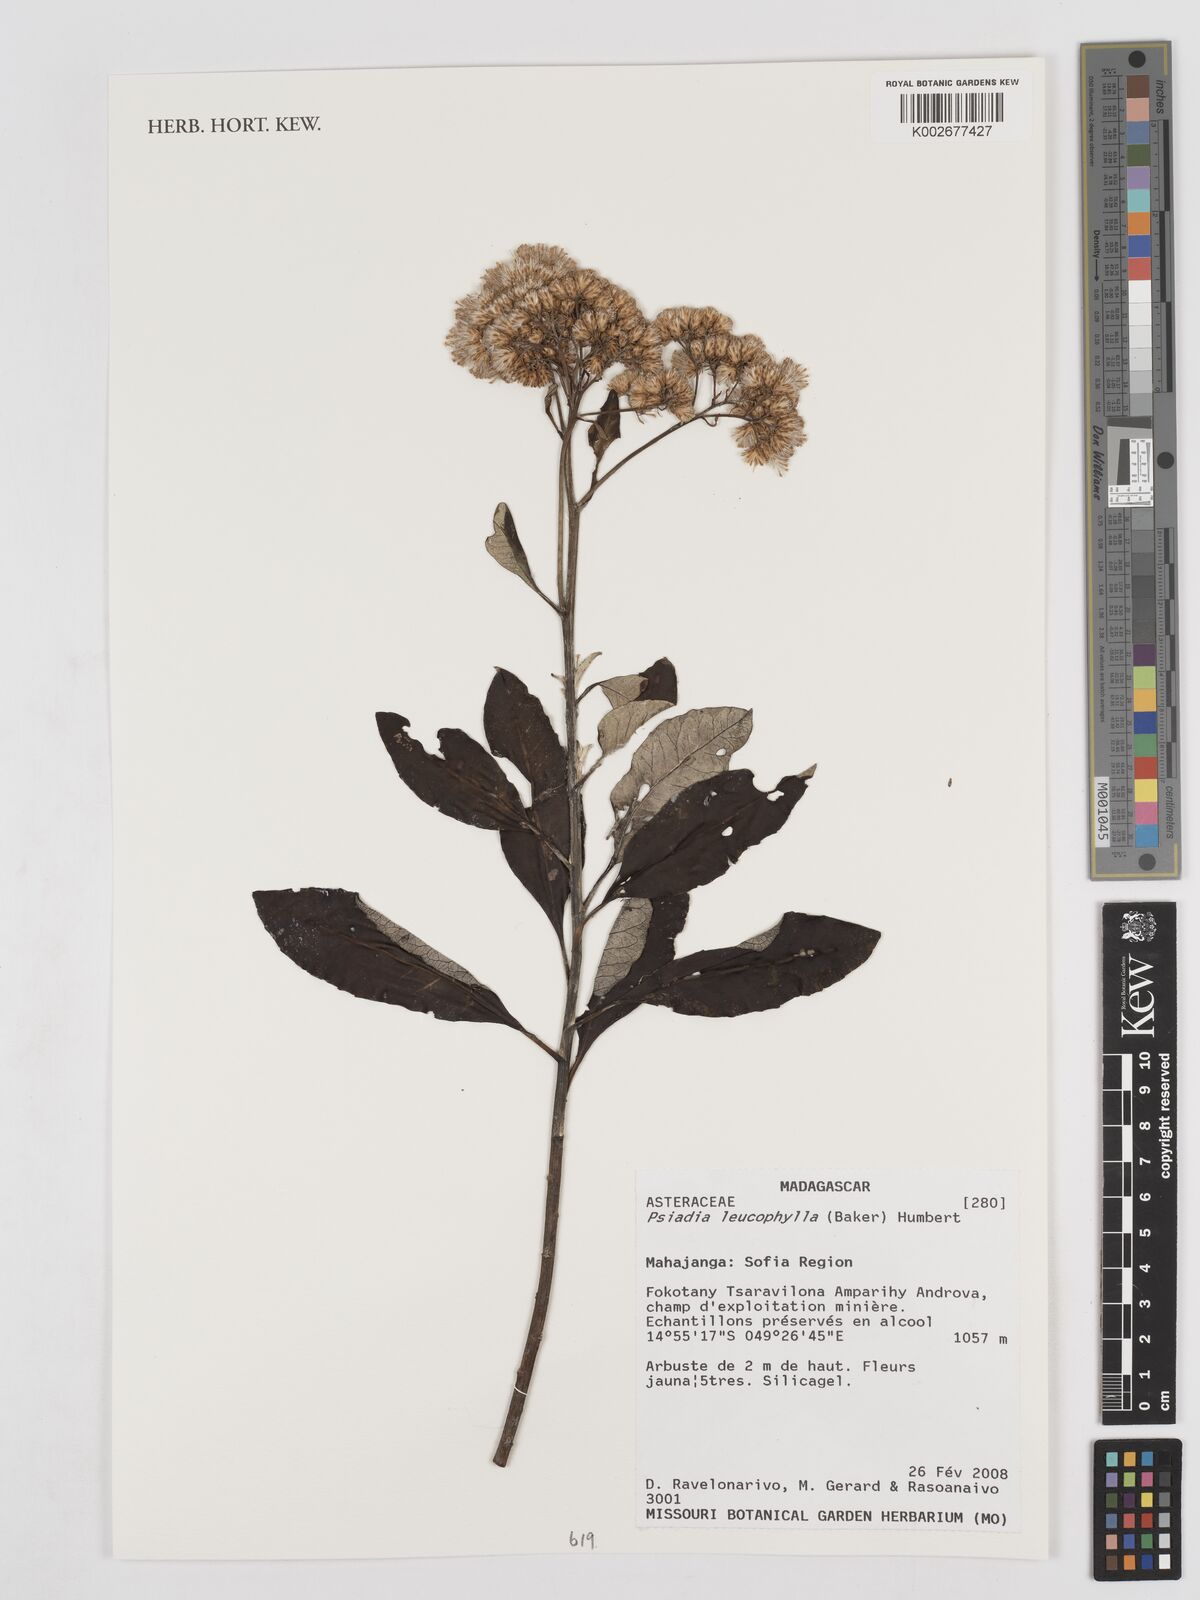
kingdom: Plantae
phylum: Tracheophyta
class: Magnoliopsida
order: Asterales
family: Asteraceae
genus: Psiadia
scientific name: Psiadia leucophylla
